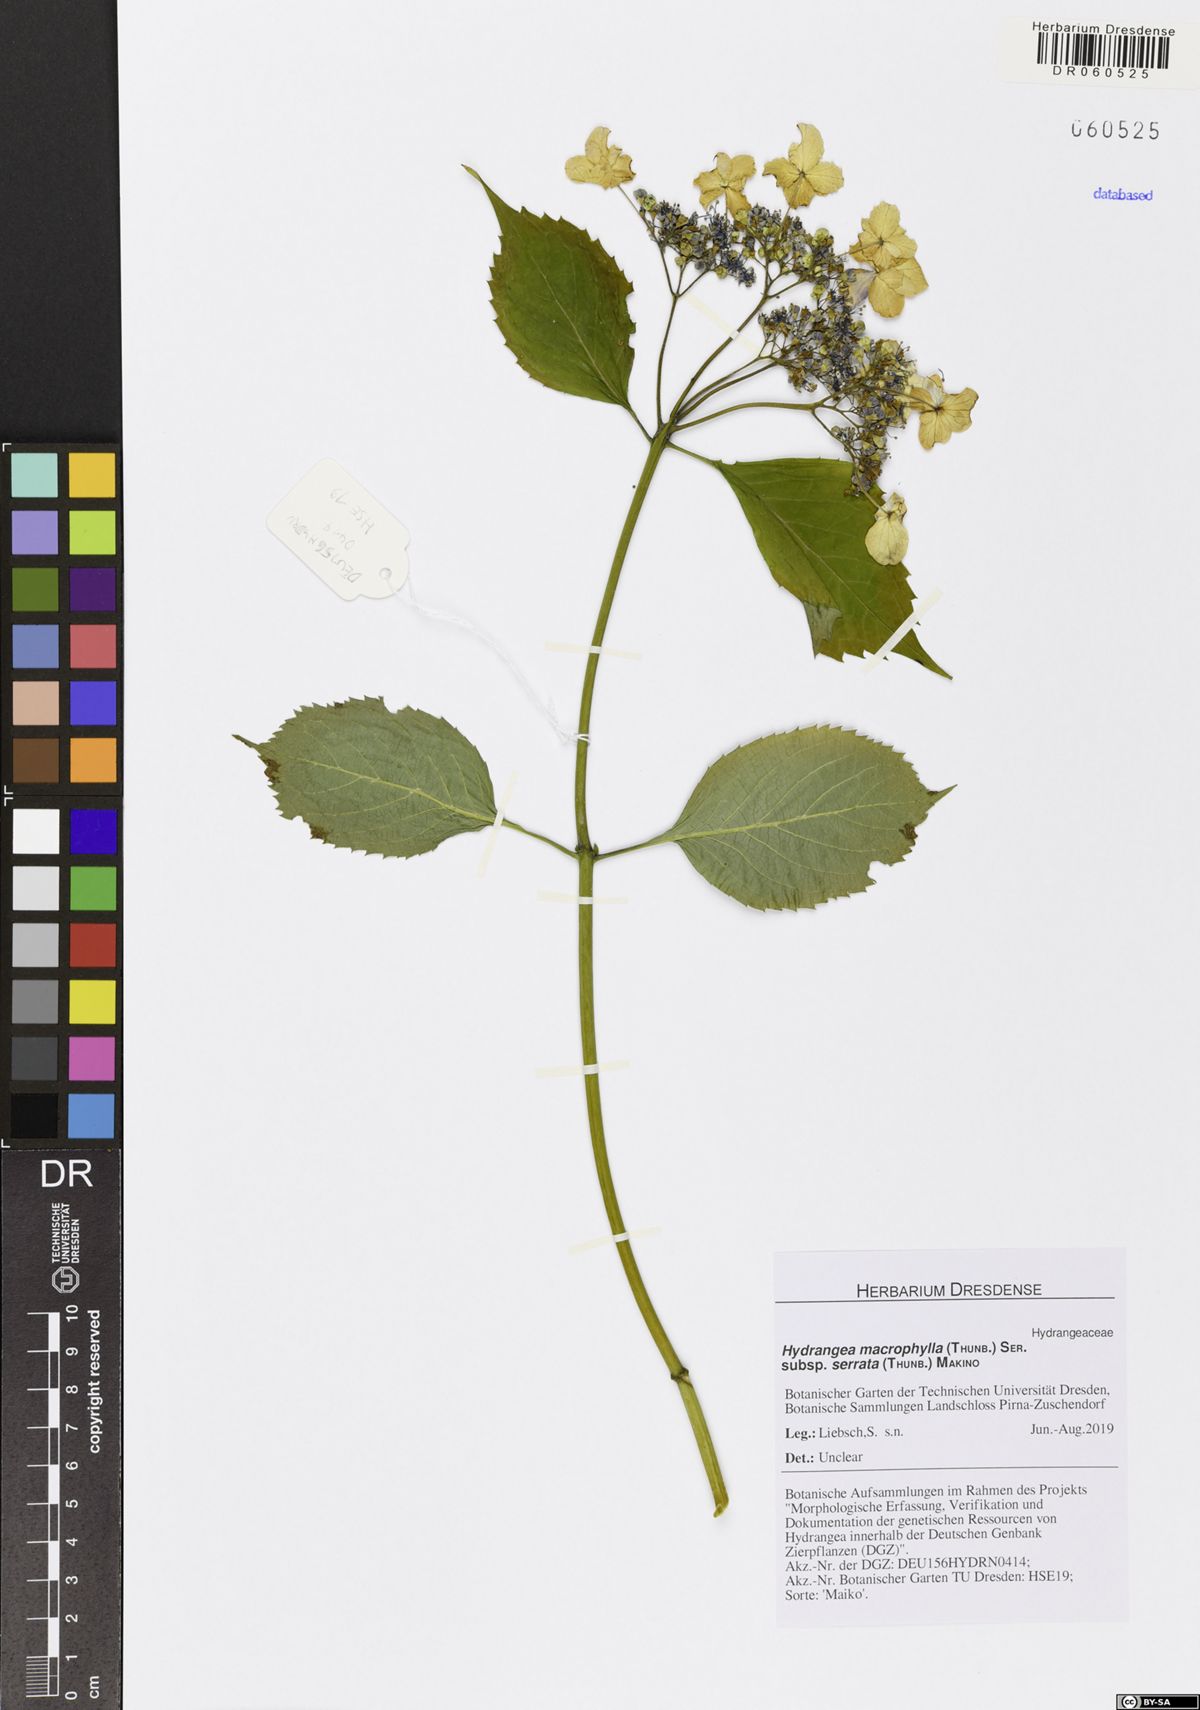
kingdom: Plantae
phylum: Tracheophyta
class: Magnoliopsida
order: Cornales
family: Hydrangeaceae
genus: Hydrangea
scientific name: Hydrangea serrata
